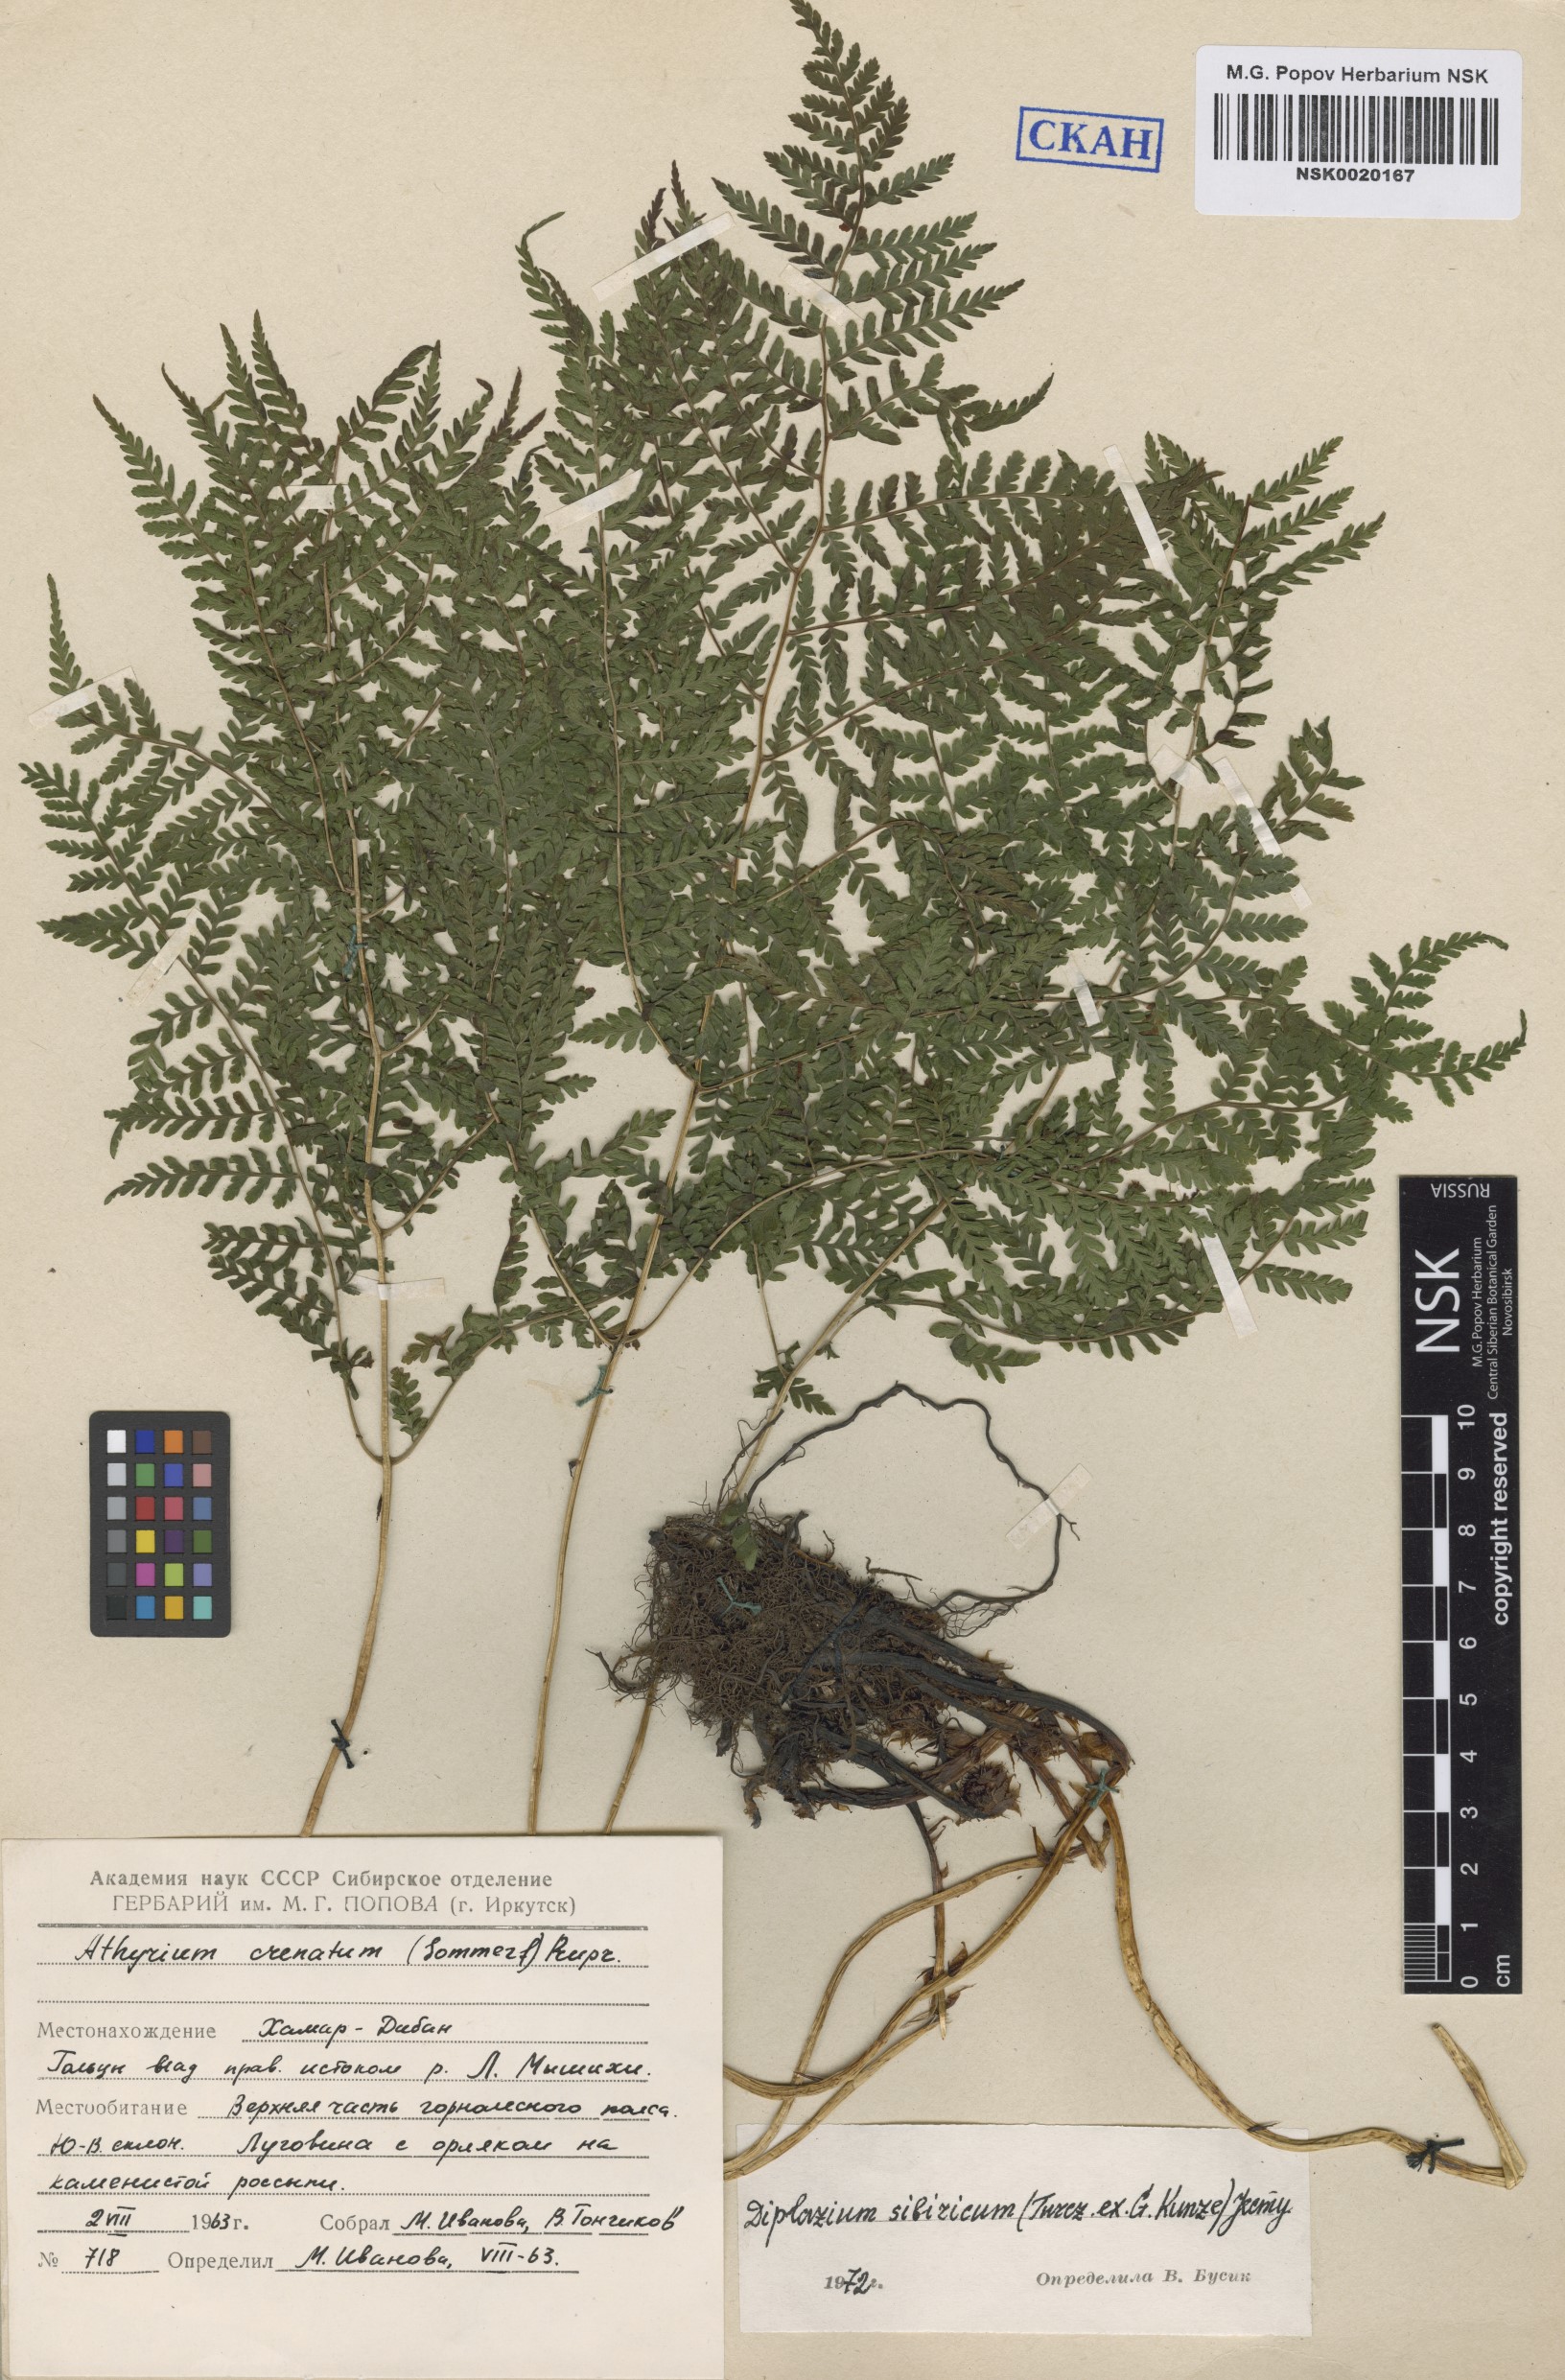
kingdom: Plantae
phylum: Tracheophyta
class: Polypodiopsida
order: Polypodiales
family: Athyriaceae
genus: Diplazium
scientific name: Diplazium sibiricum
